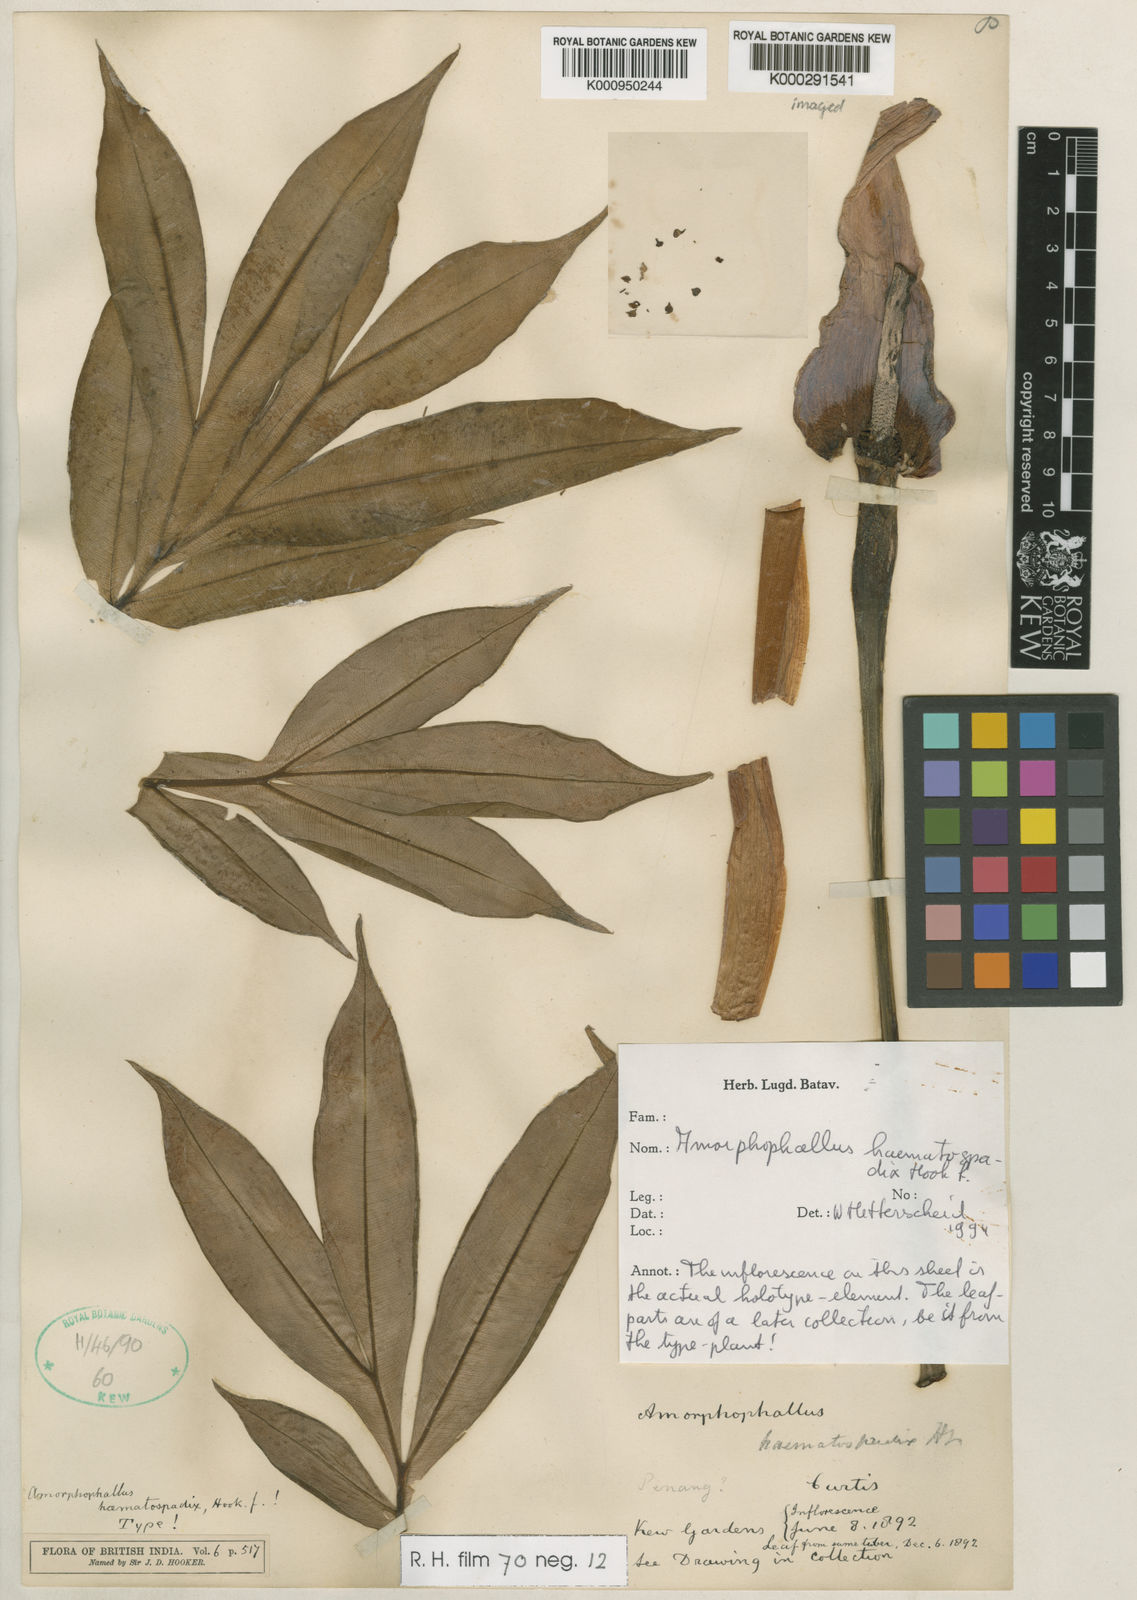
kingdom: Plantae
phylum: Tracheophyta
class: Liliopsida
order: Alismatales
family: Araceae
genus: Amorphophallus
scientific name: Amorphophallus haematospadix
